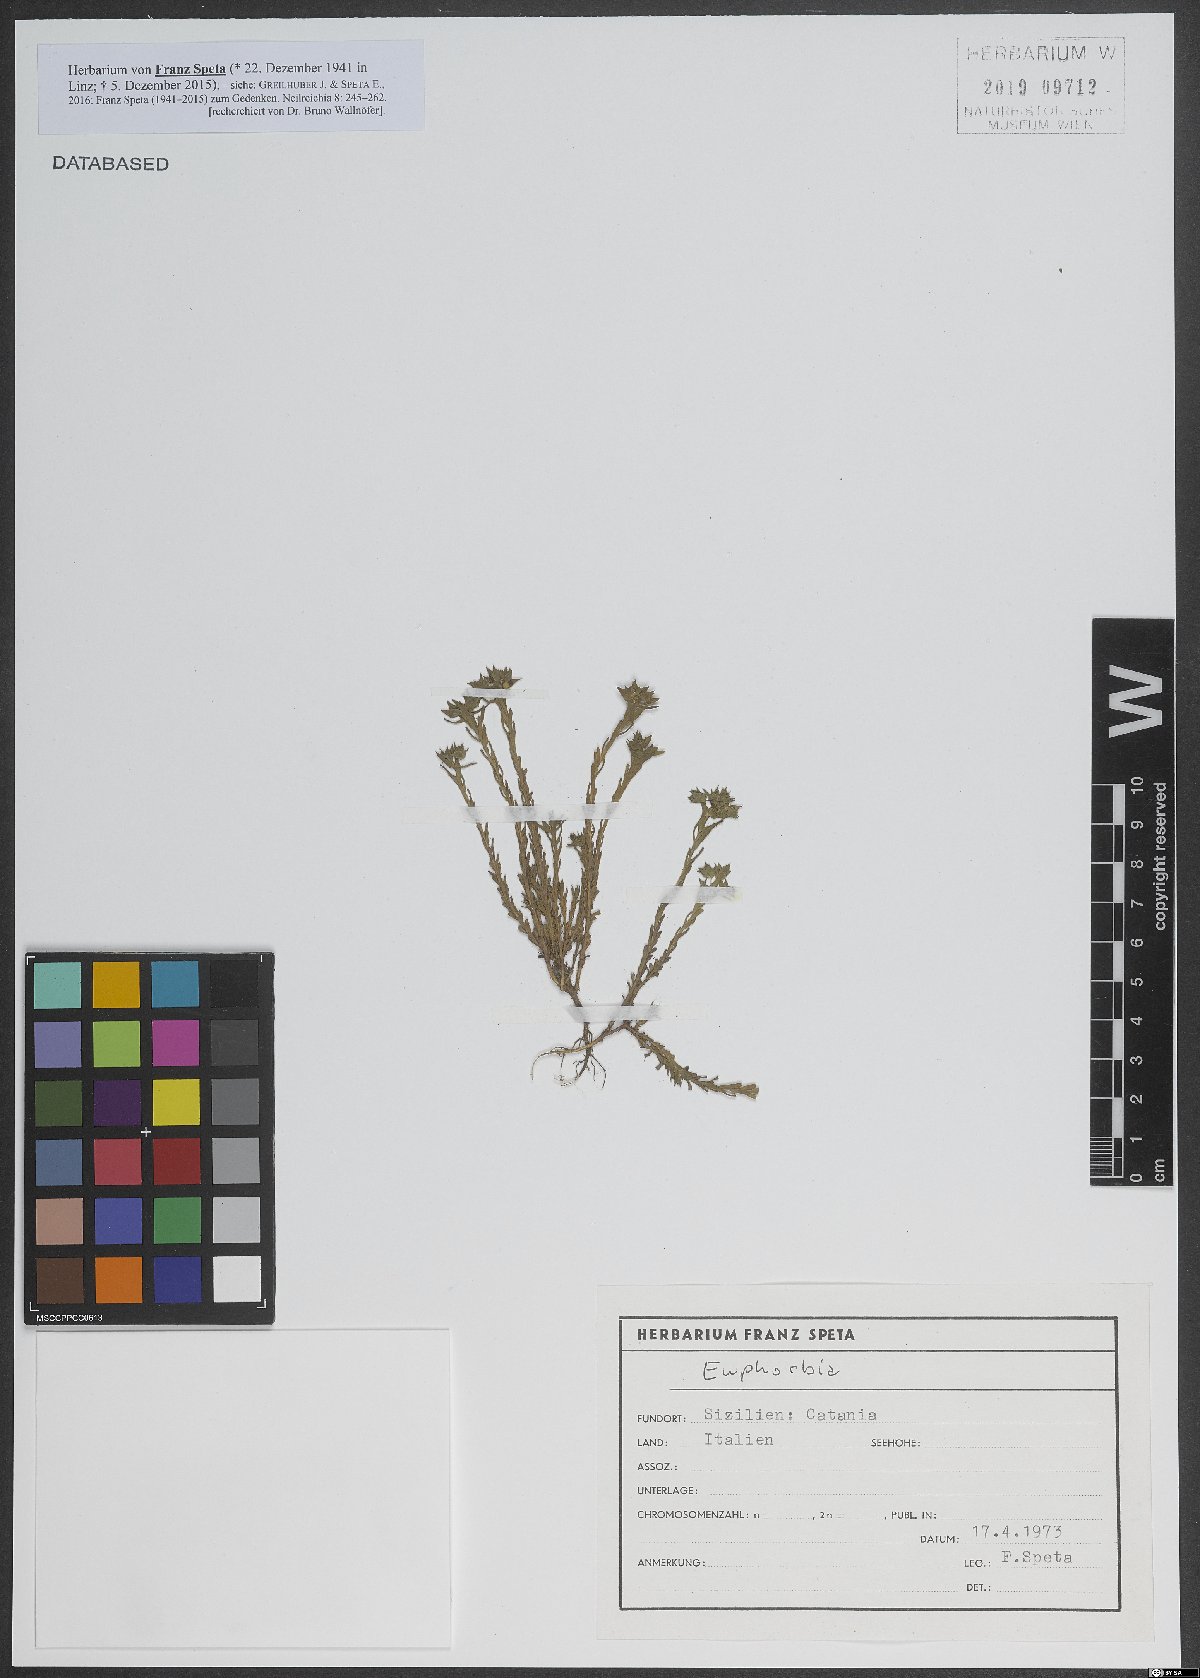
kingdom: Plantae
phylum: Tracheophyta
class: Magnoliopsida
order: Malpighiales
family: Euphorbiaceae
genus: Euphorbia
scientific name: Euphorbia
